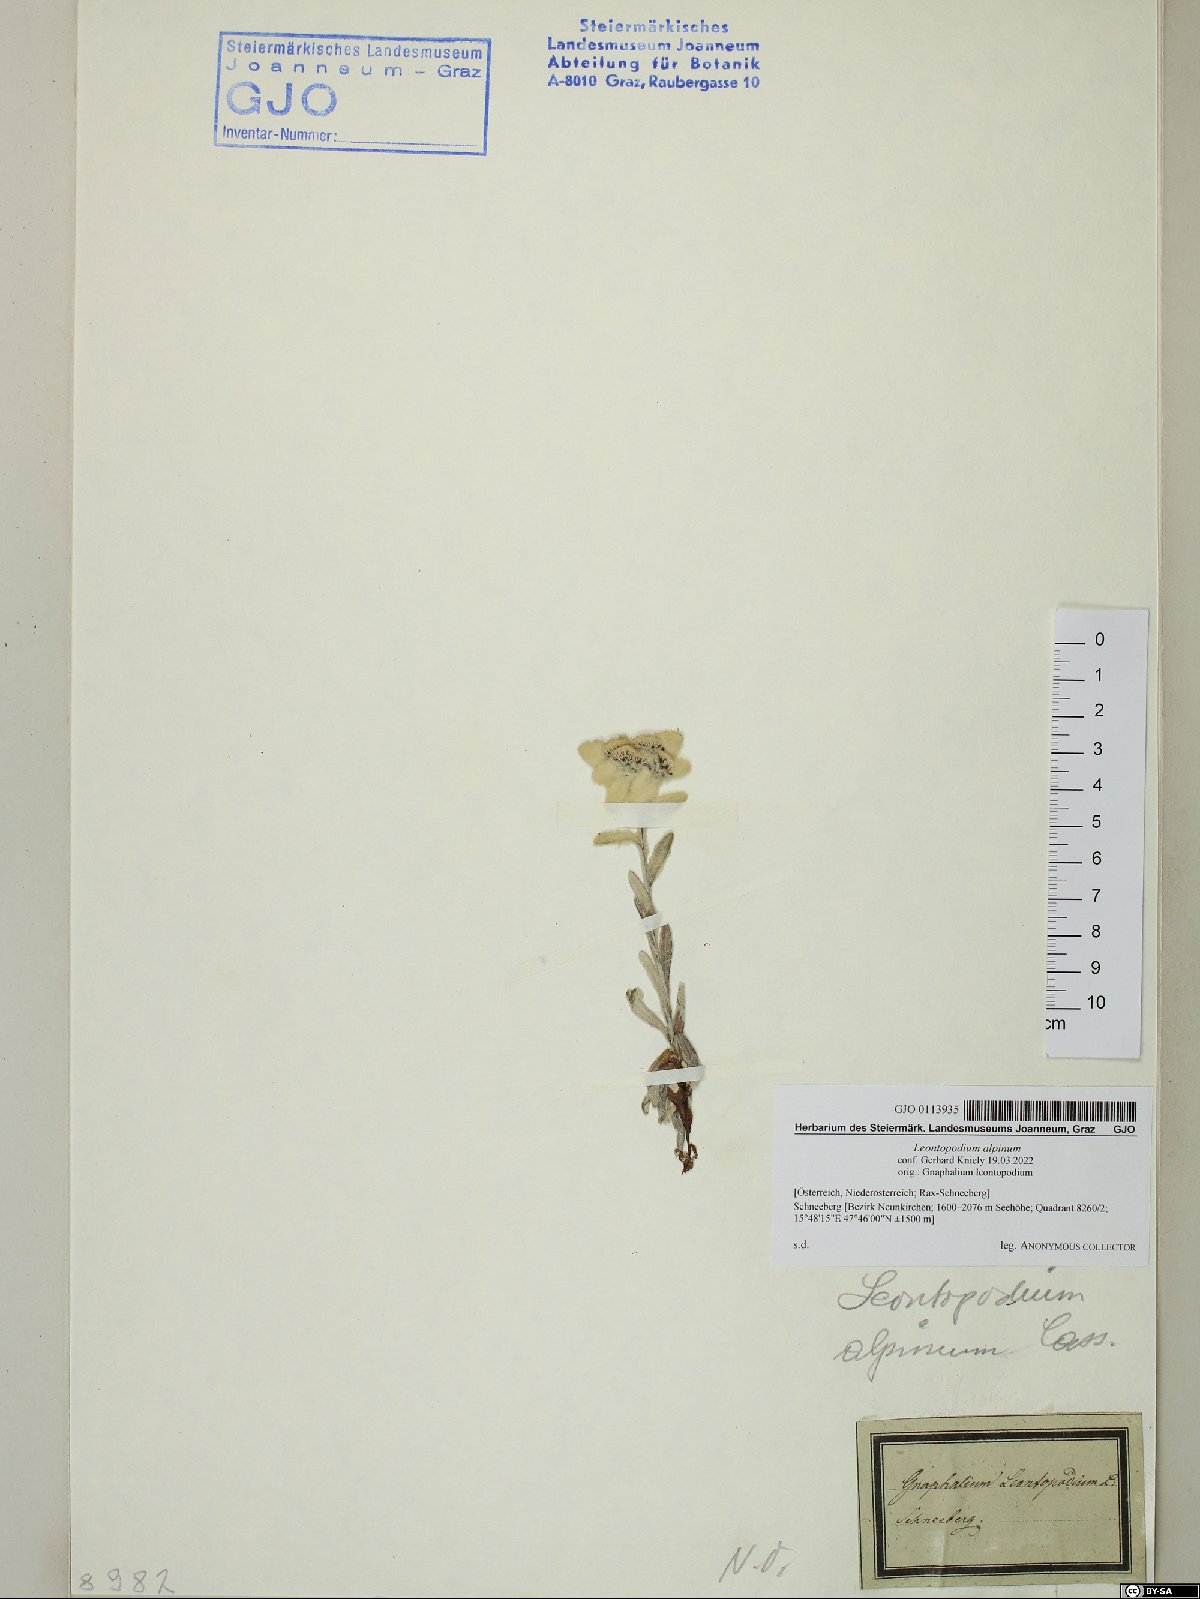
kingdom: Plantae
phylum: Tracheophyta
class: Magnoliopsida
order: Asterales
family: Asteraceae
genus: Leontopodium
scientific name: Leontopodium nivale
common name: Edelweiss
